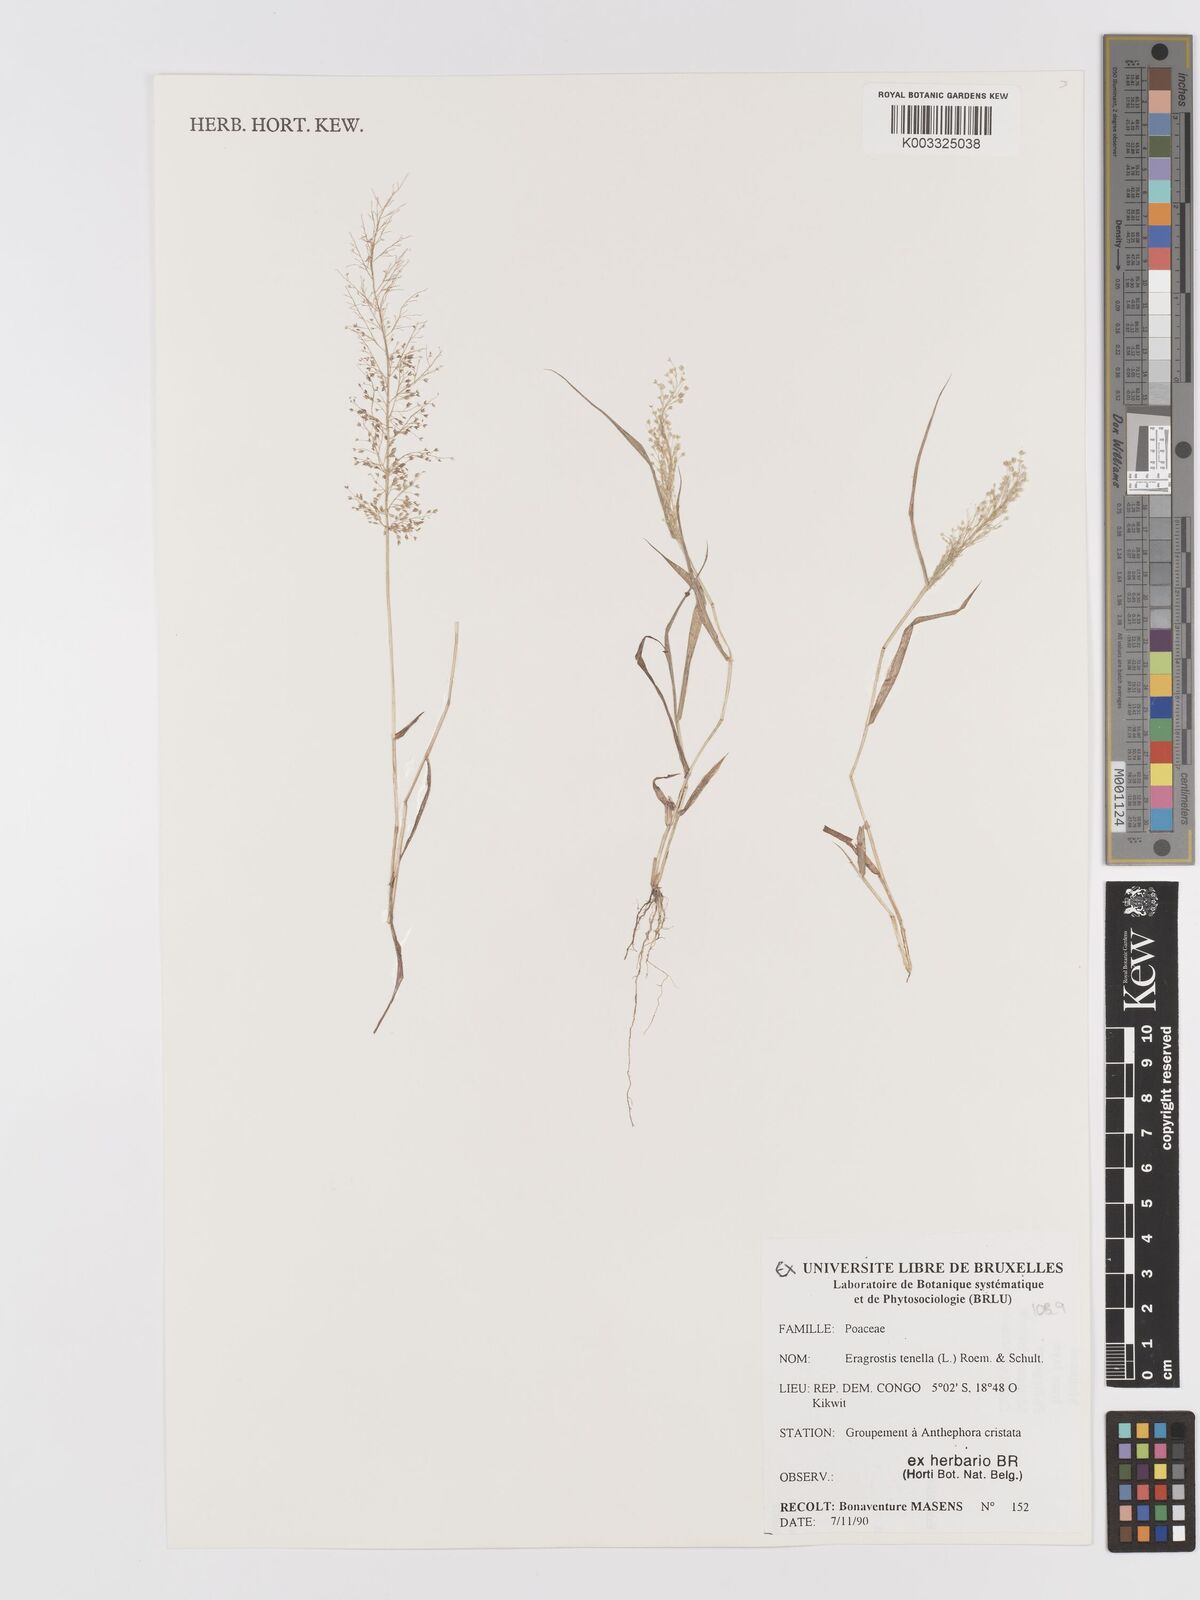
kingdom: Plantae
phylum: Tracheophyta
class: Liliopsida
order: Poales
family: Poaceae
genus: Eragrostis
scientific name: Eragrostis tenella
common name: Japanese lovegrass
